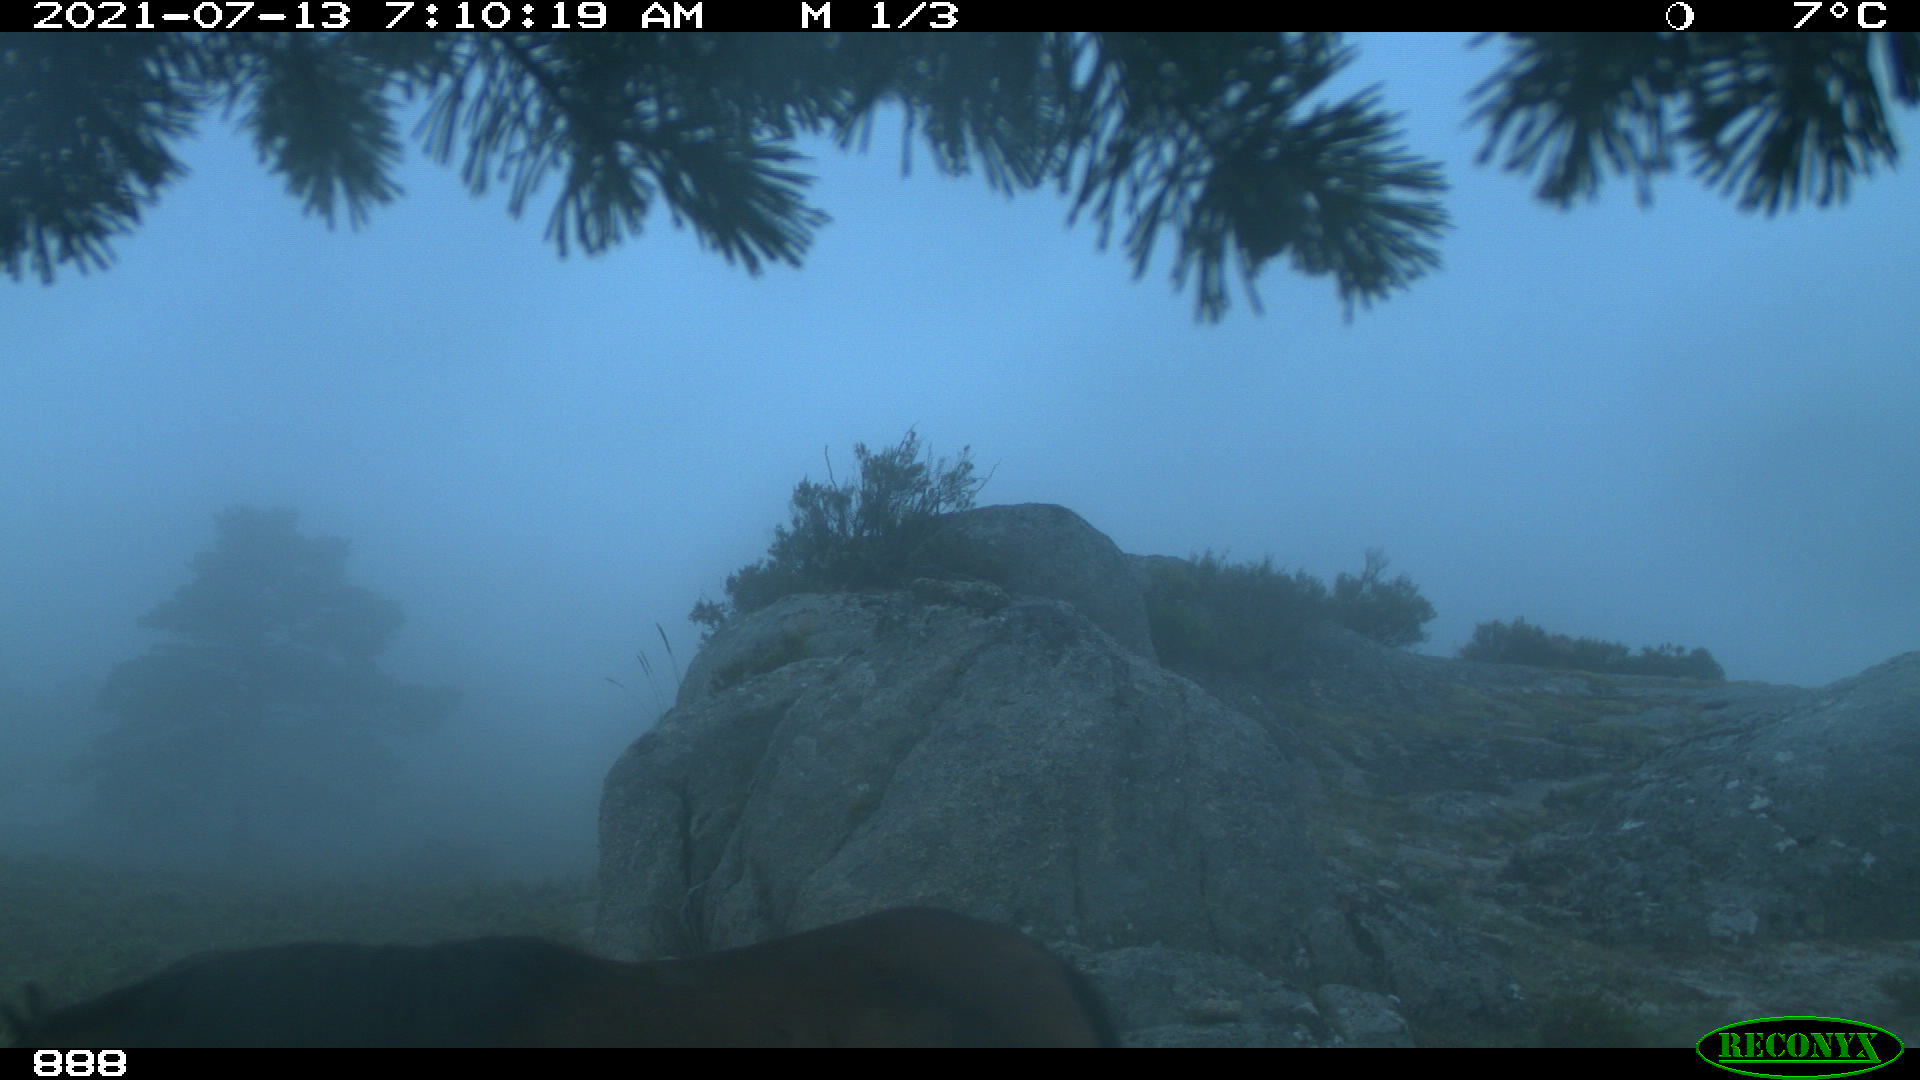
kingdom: Animalia
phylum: Chordata
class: Mammalia
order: Perissodactyla
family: Equidae
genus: Equus
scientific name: Equus caballus
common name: Horse
